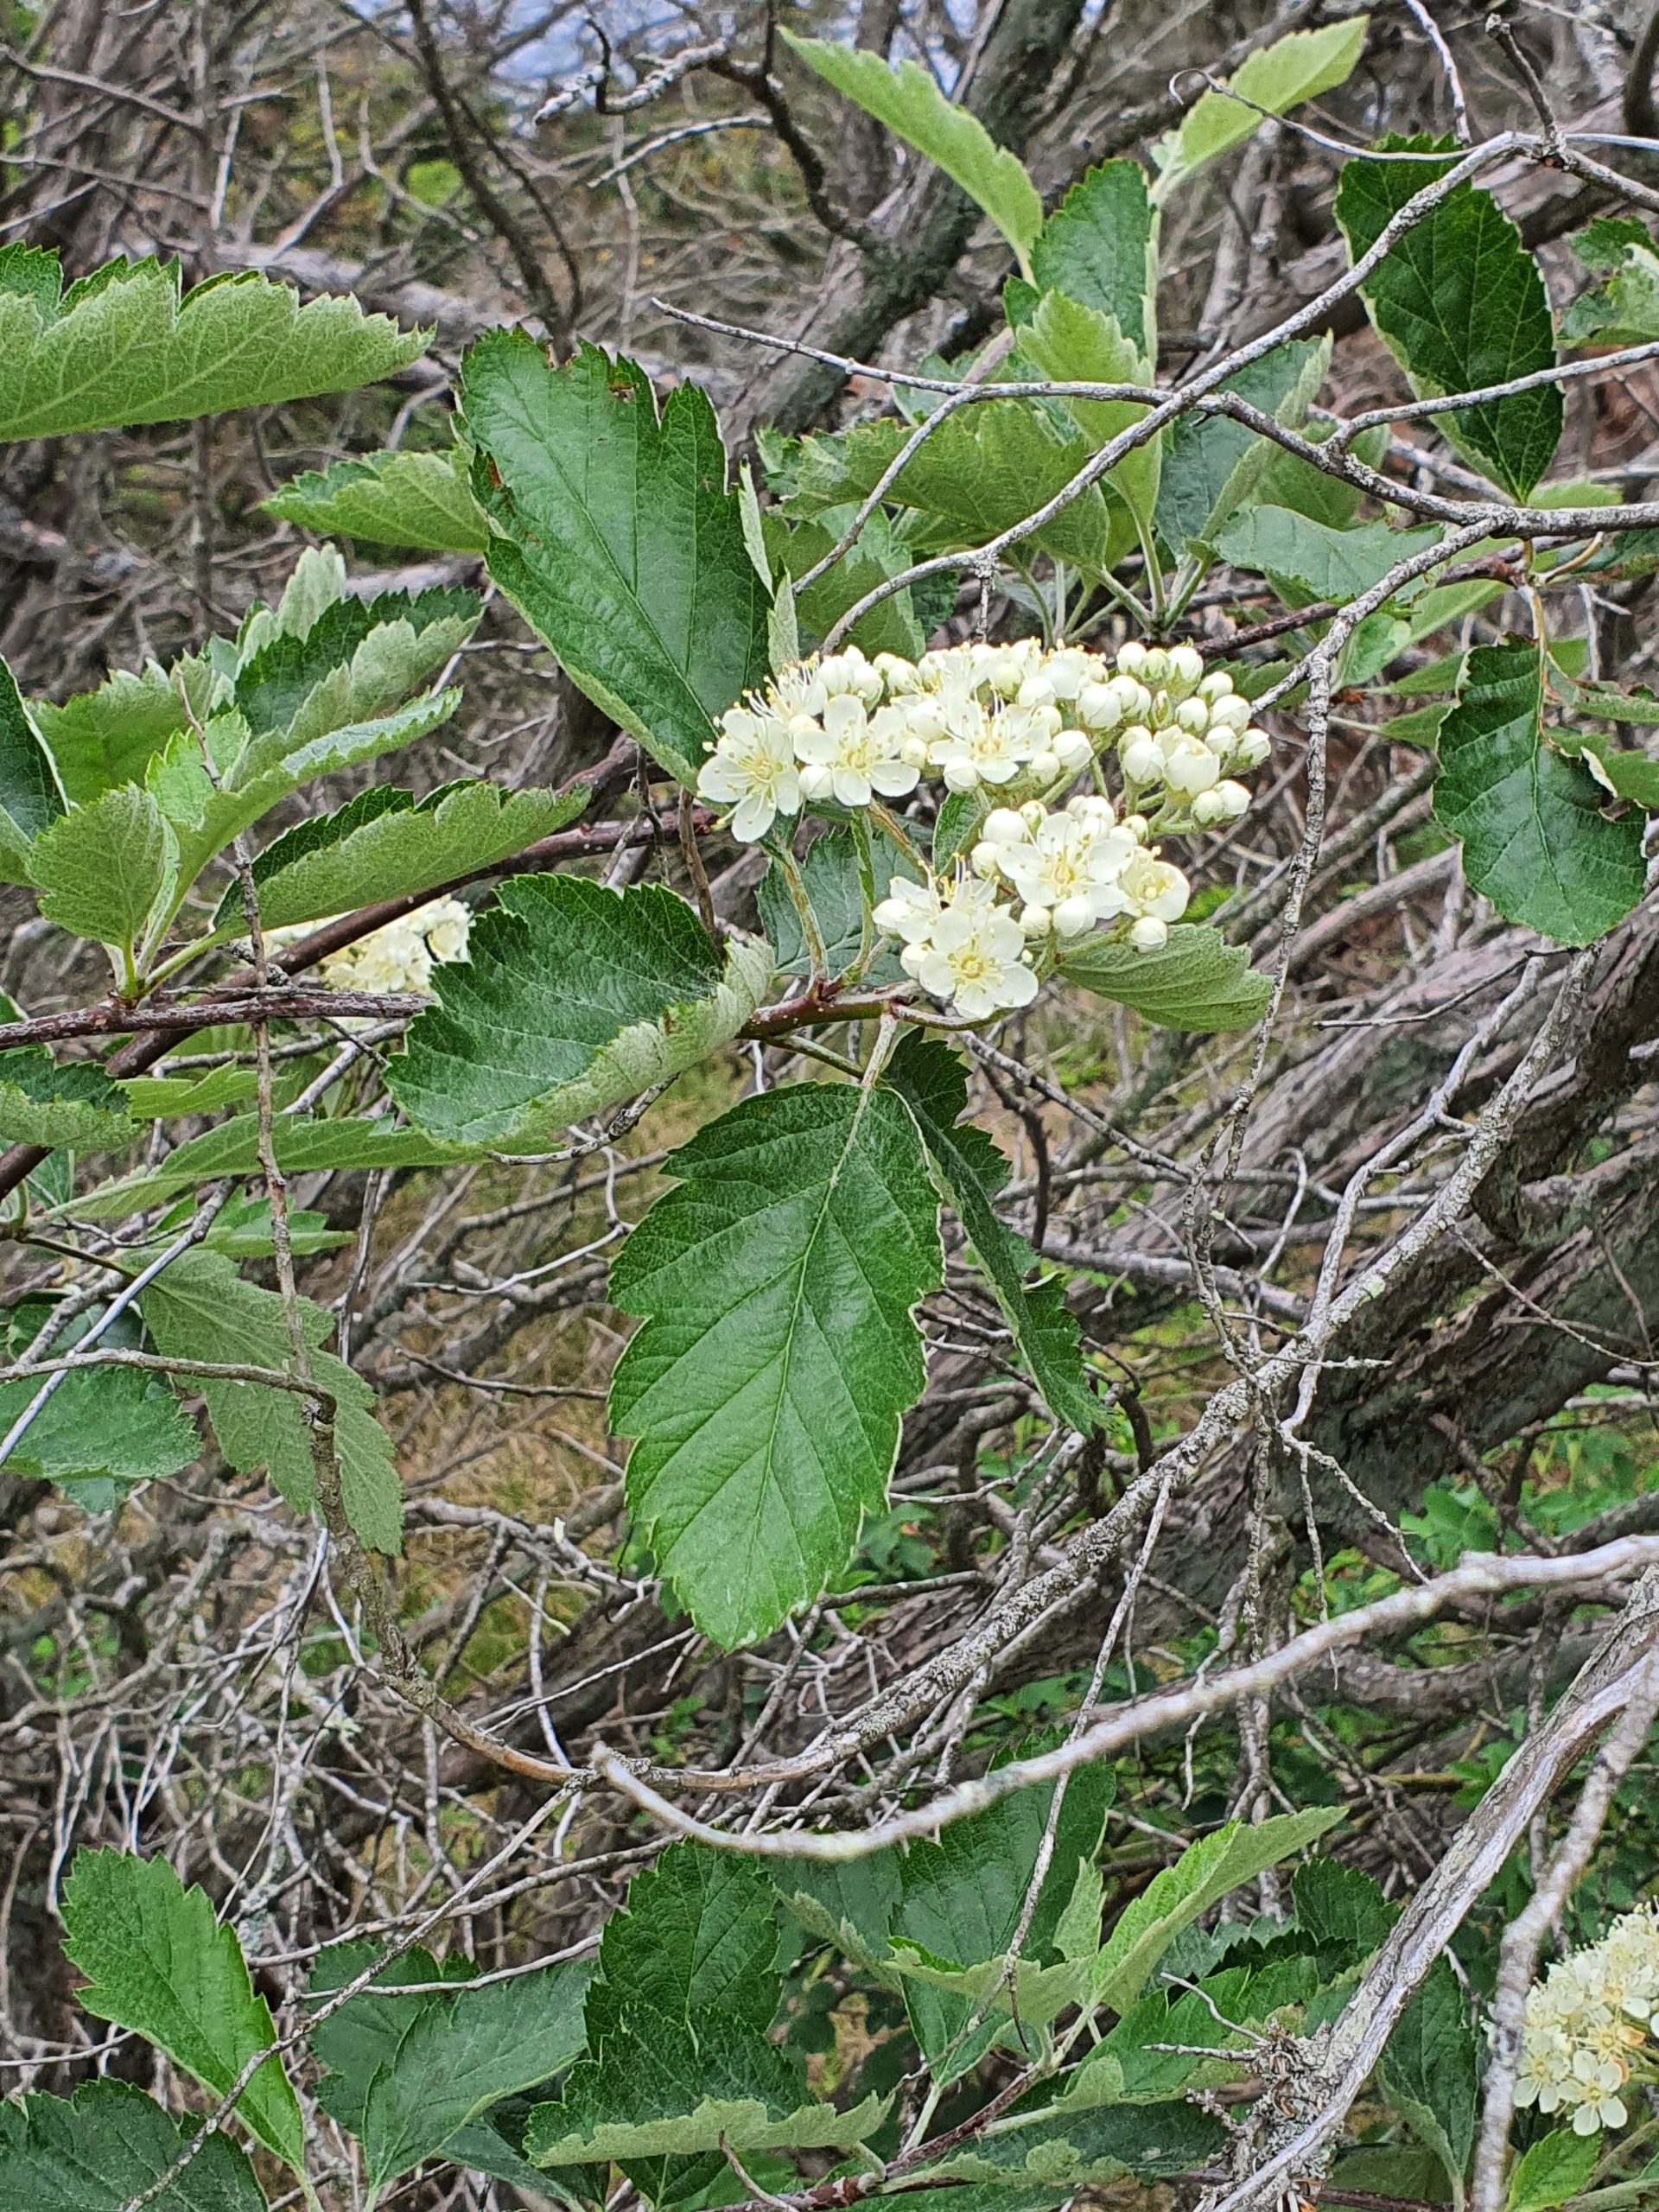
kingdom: Plantae
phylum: Tracheophyta
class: Magnoliopsida
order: Rosales
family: Rosaceae
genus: Scandosorbus
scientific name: Scandosorbus intermedia
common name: Selje-røn
